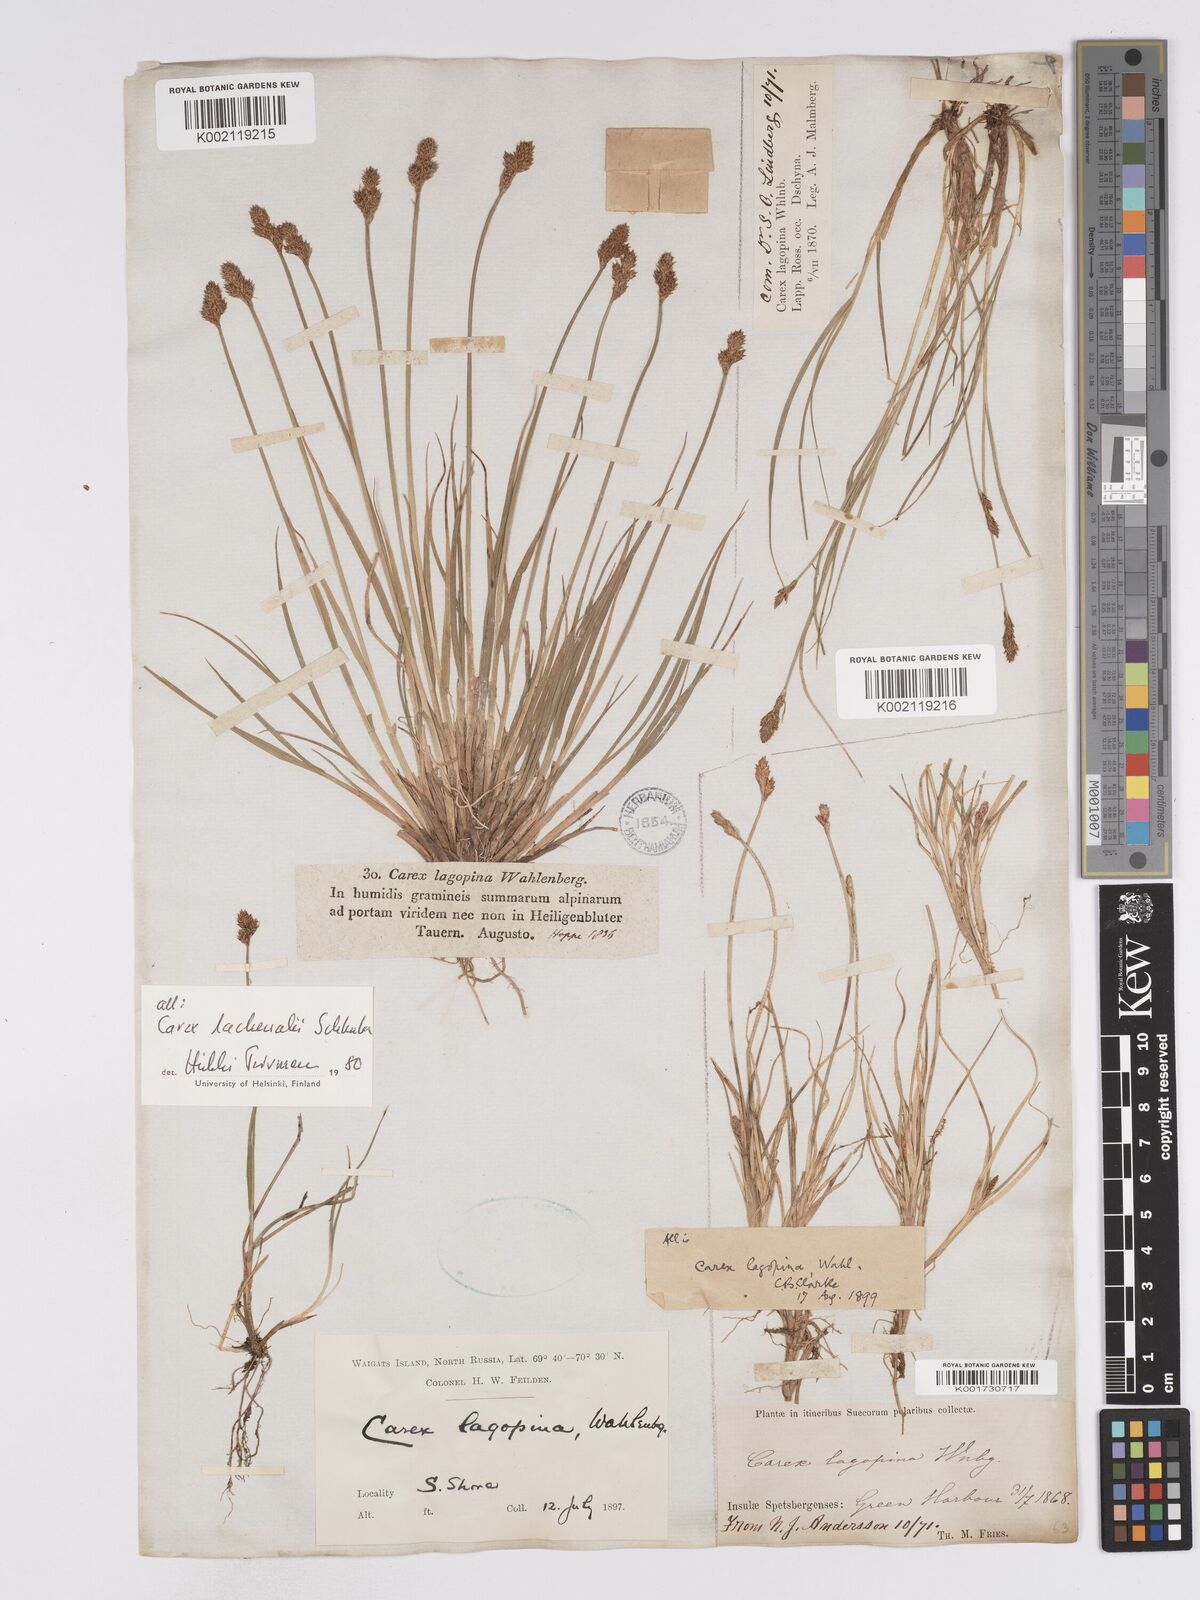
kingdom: Plantae
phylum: Tracheophyta
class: Liliopsida
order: Poales
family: Cyperaceae
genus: Carex
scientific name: Carex lachenalii
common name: Hare's-foot sedge
